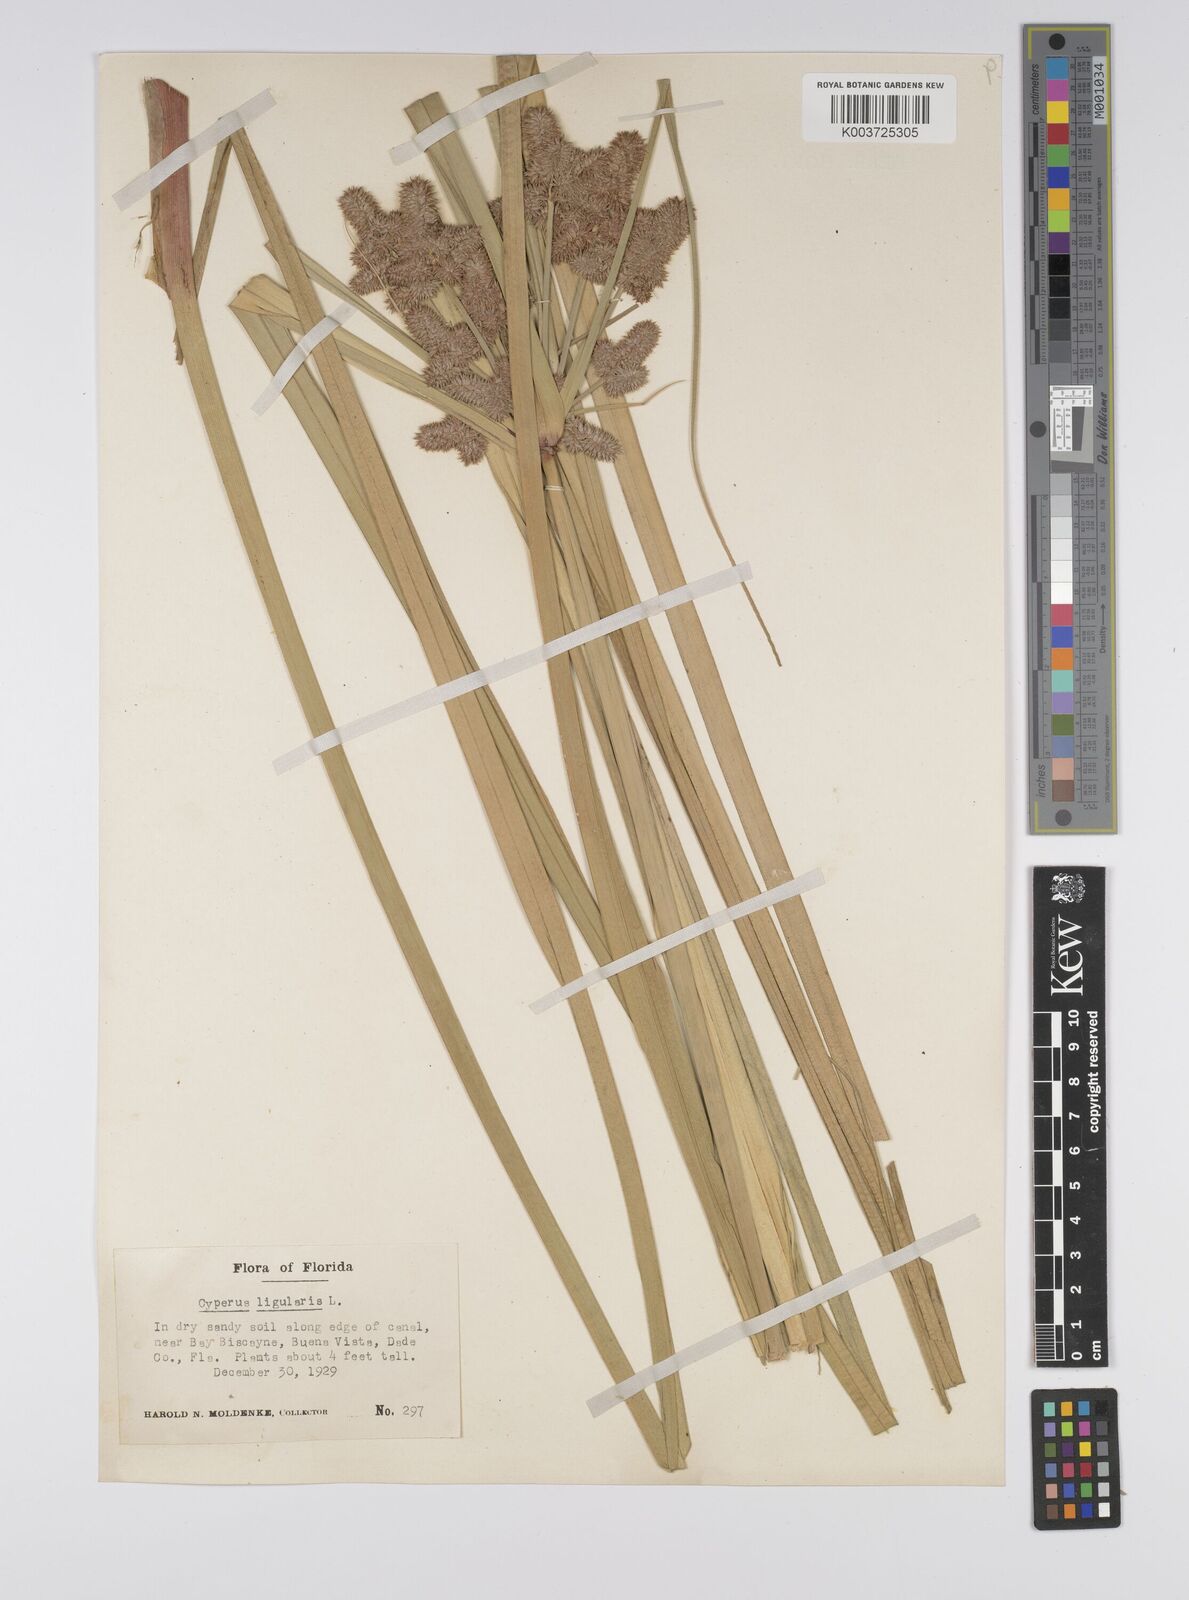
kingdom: Plantae
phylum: Tracheophyta
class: Liliopsida
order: Poales
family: Cyperaceae
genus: Cyperus
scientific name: Cyperus ligularis
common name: Swamp flat sedge
